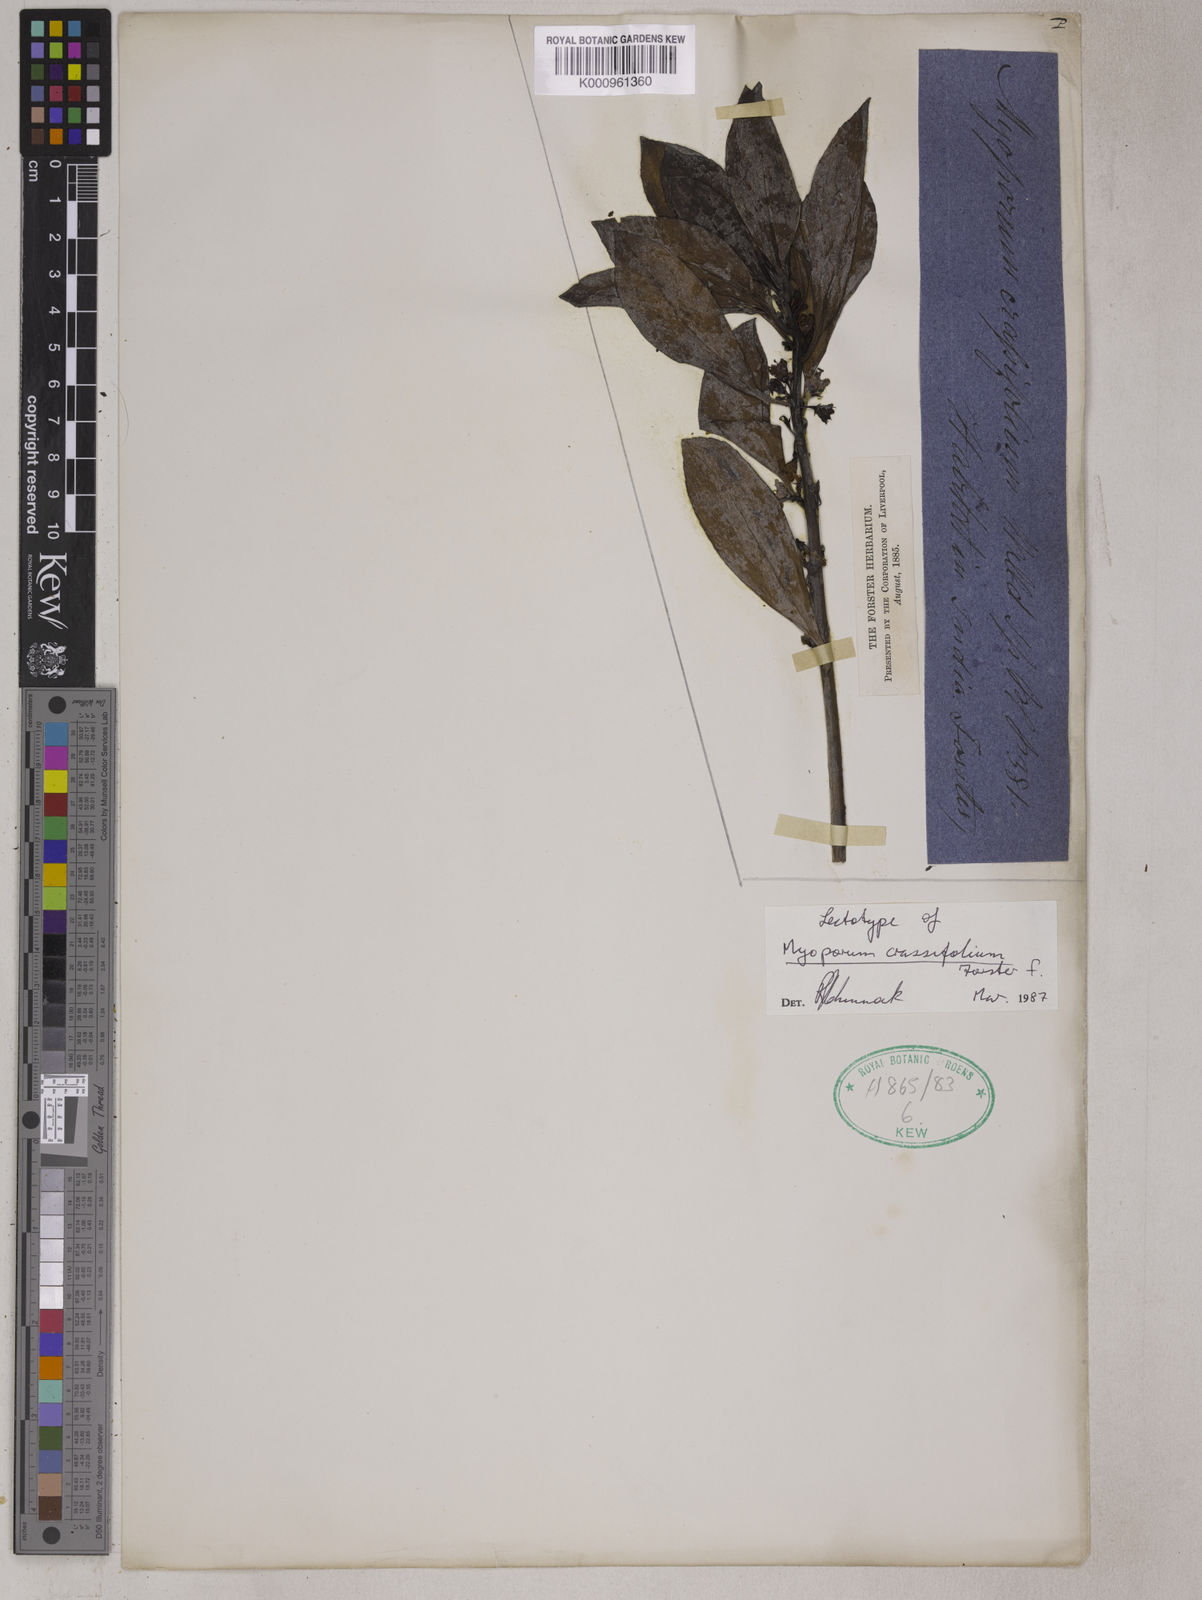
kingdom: Plantae
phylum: Tracheophyta
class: Magnoliopsida
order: Lamiales
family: Scrophulariaceae
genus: Myoporum
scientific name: Myoporum crassifolium
